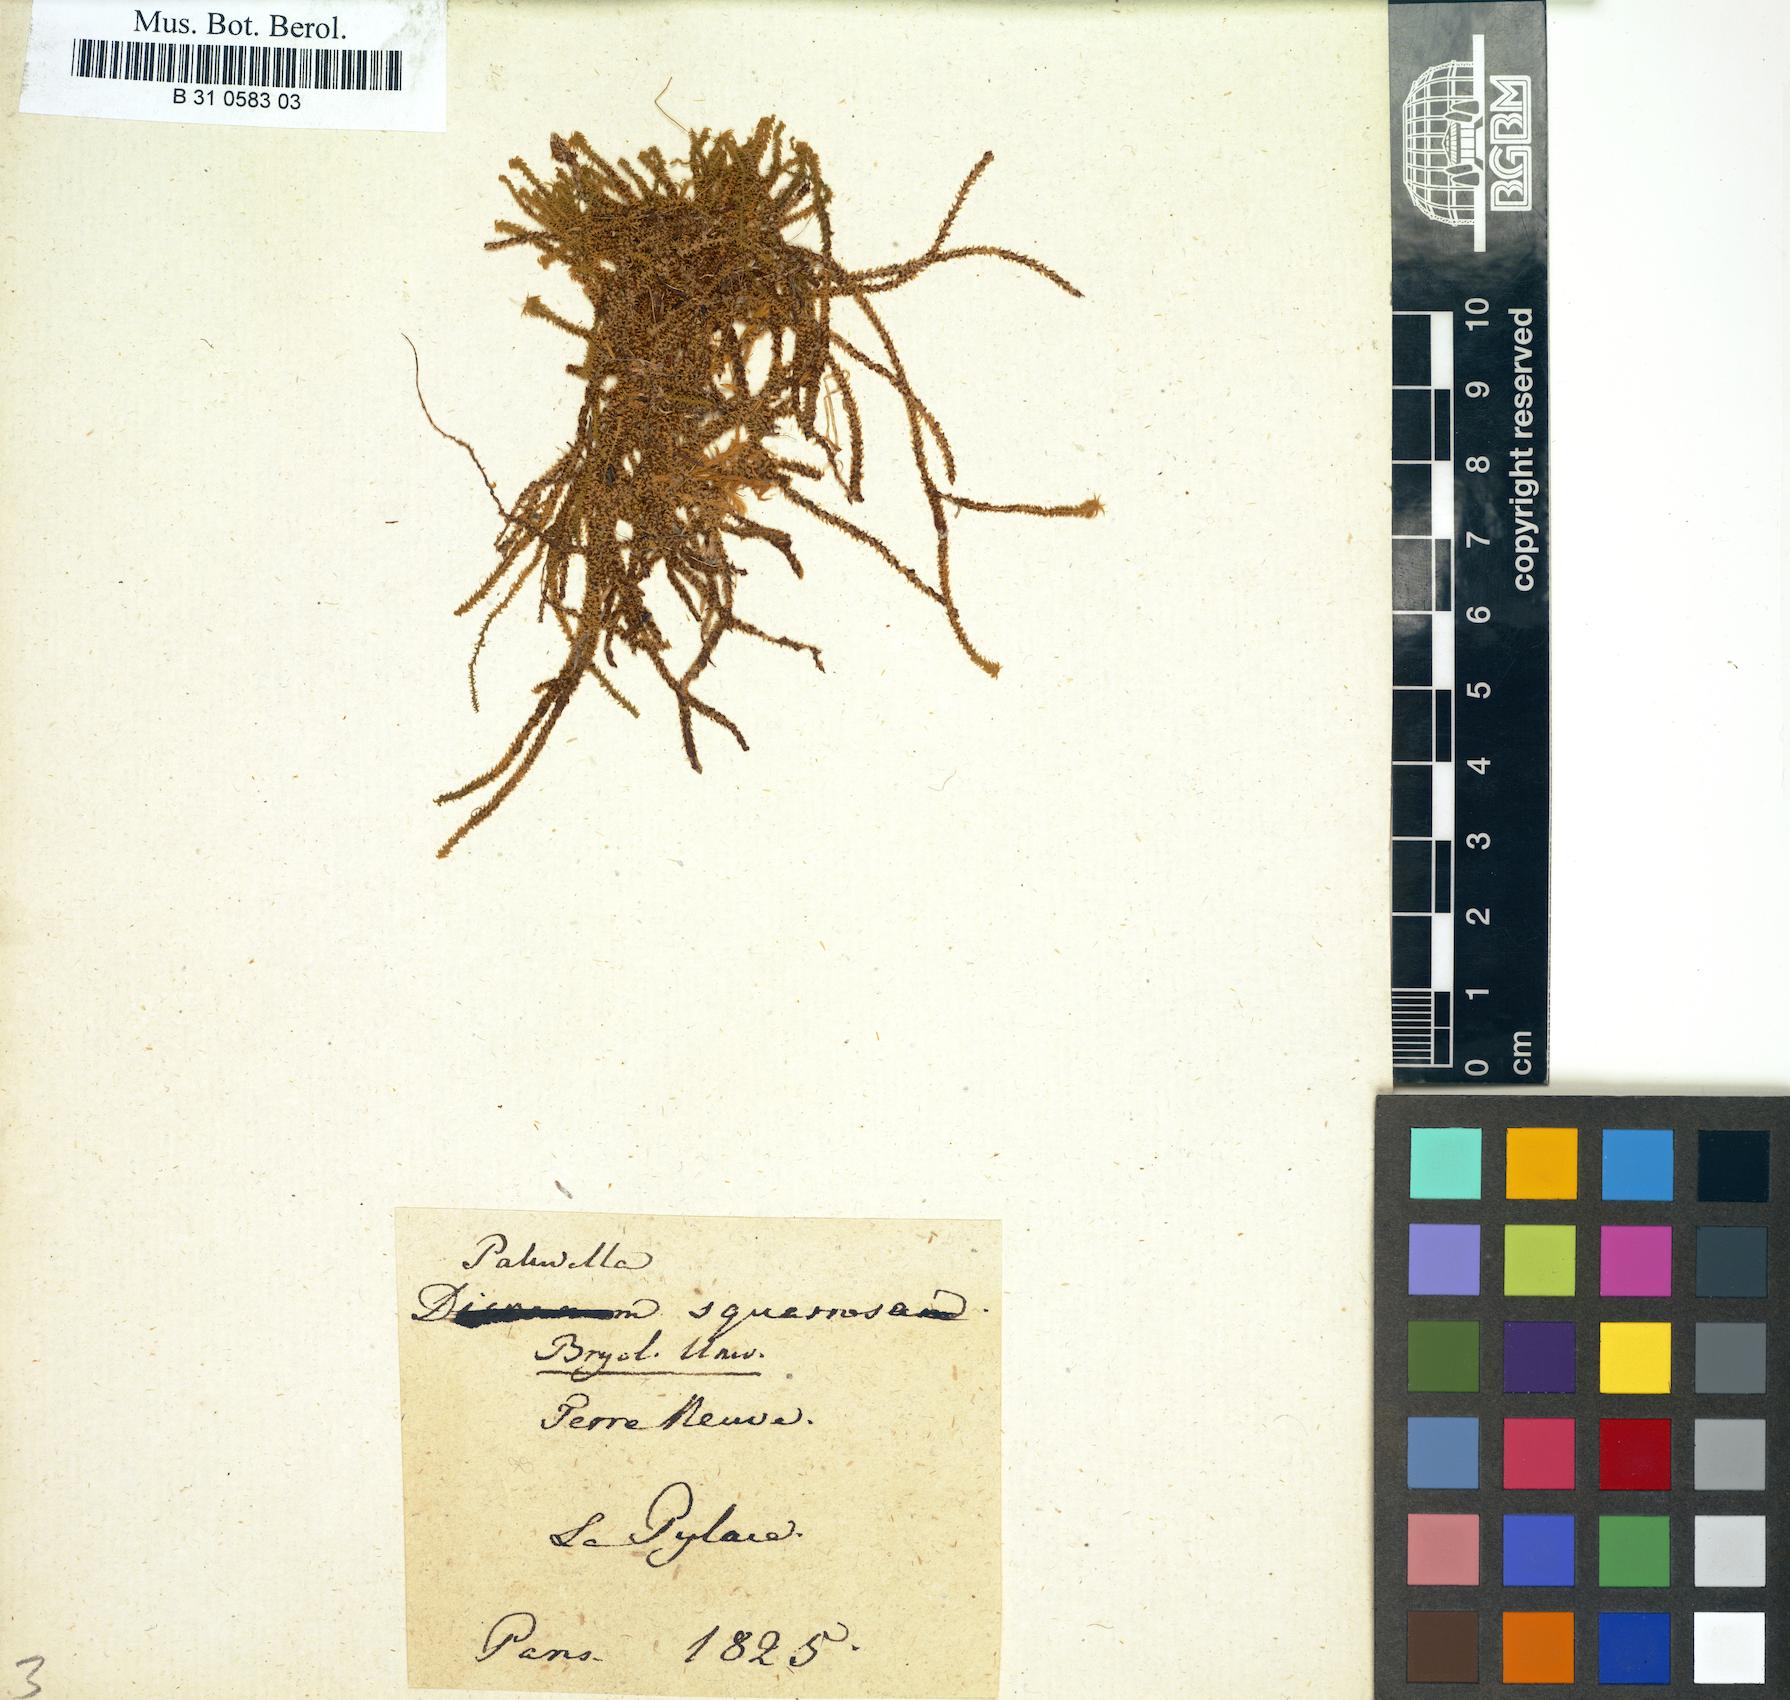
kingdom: Plantae
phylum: Bryophyta
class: Bryopsida
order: Splachnales
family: Meesiaceae
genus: Paludella
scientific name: Paludella squarrosa
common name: Tufted fen moss
